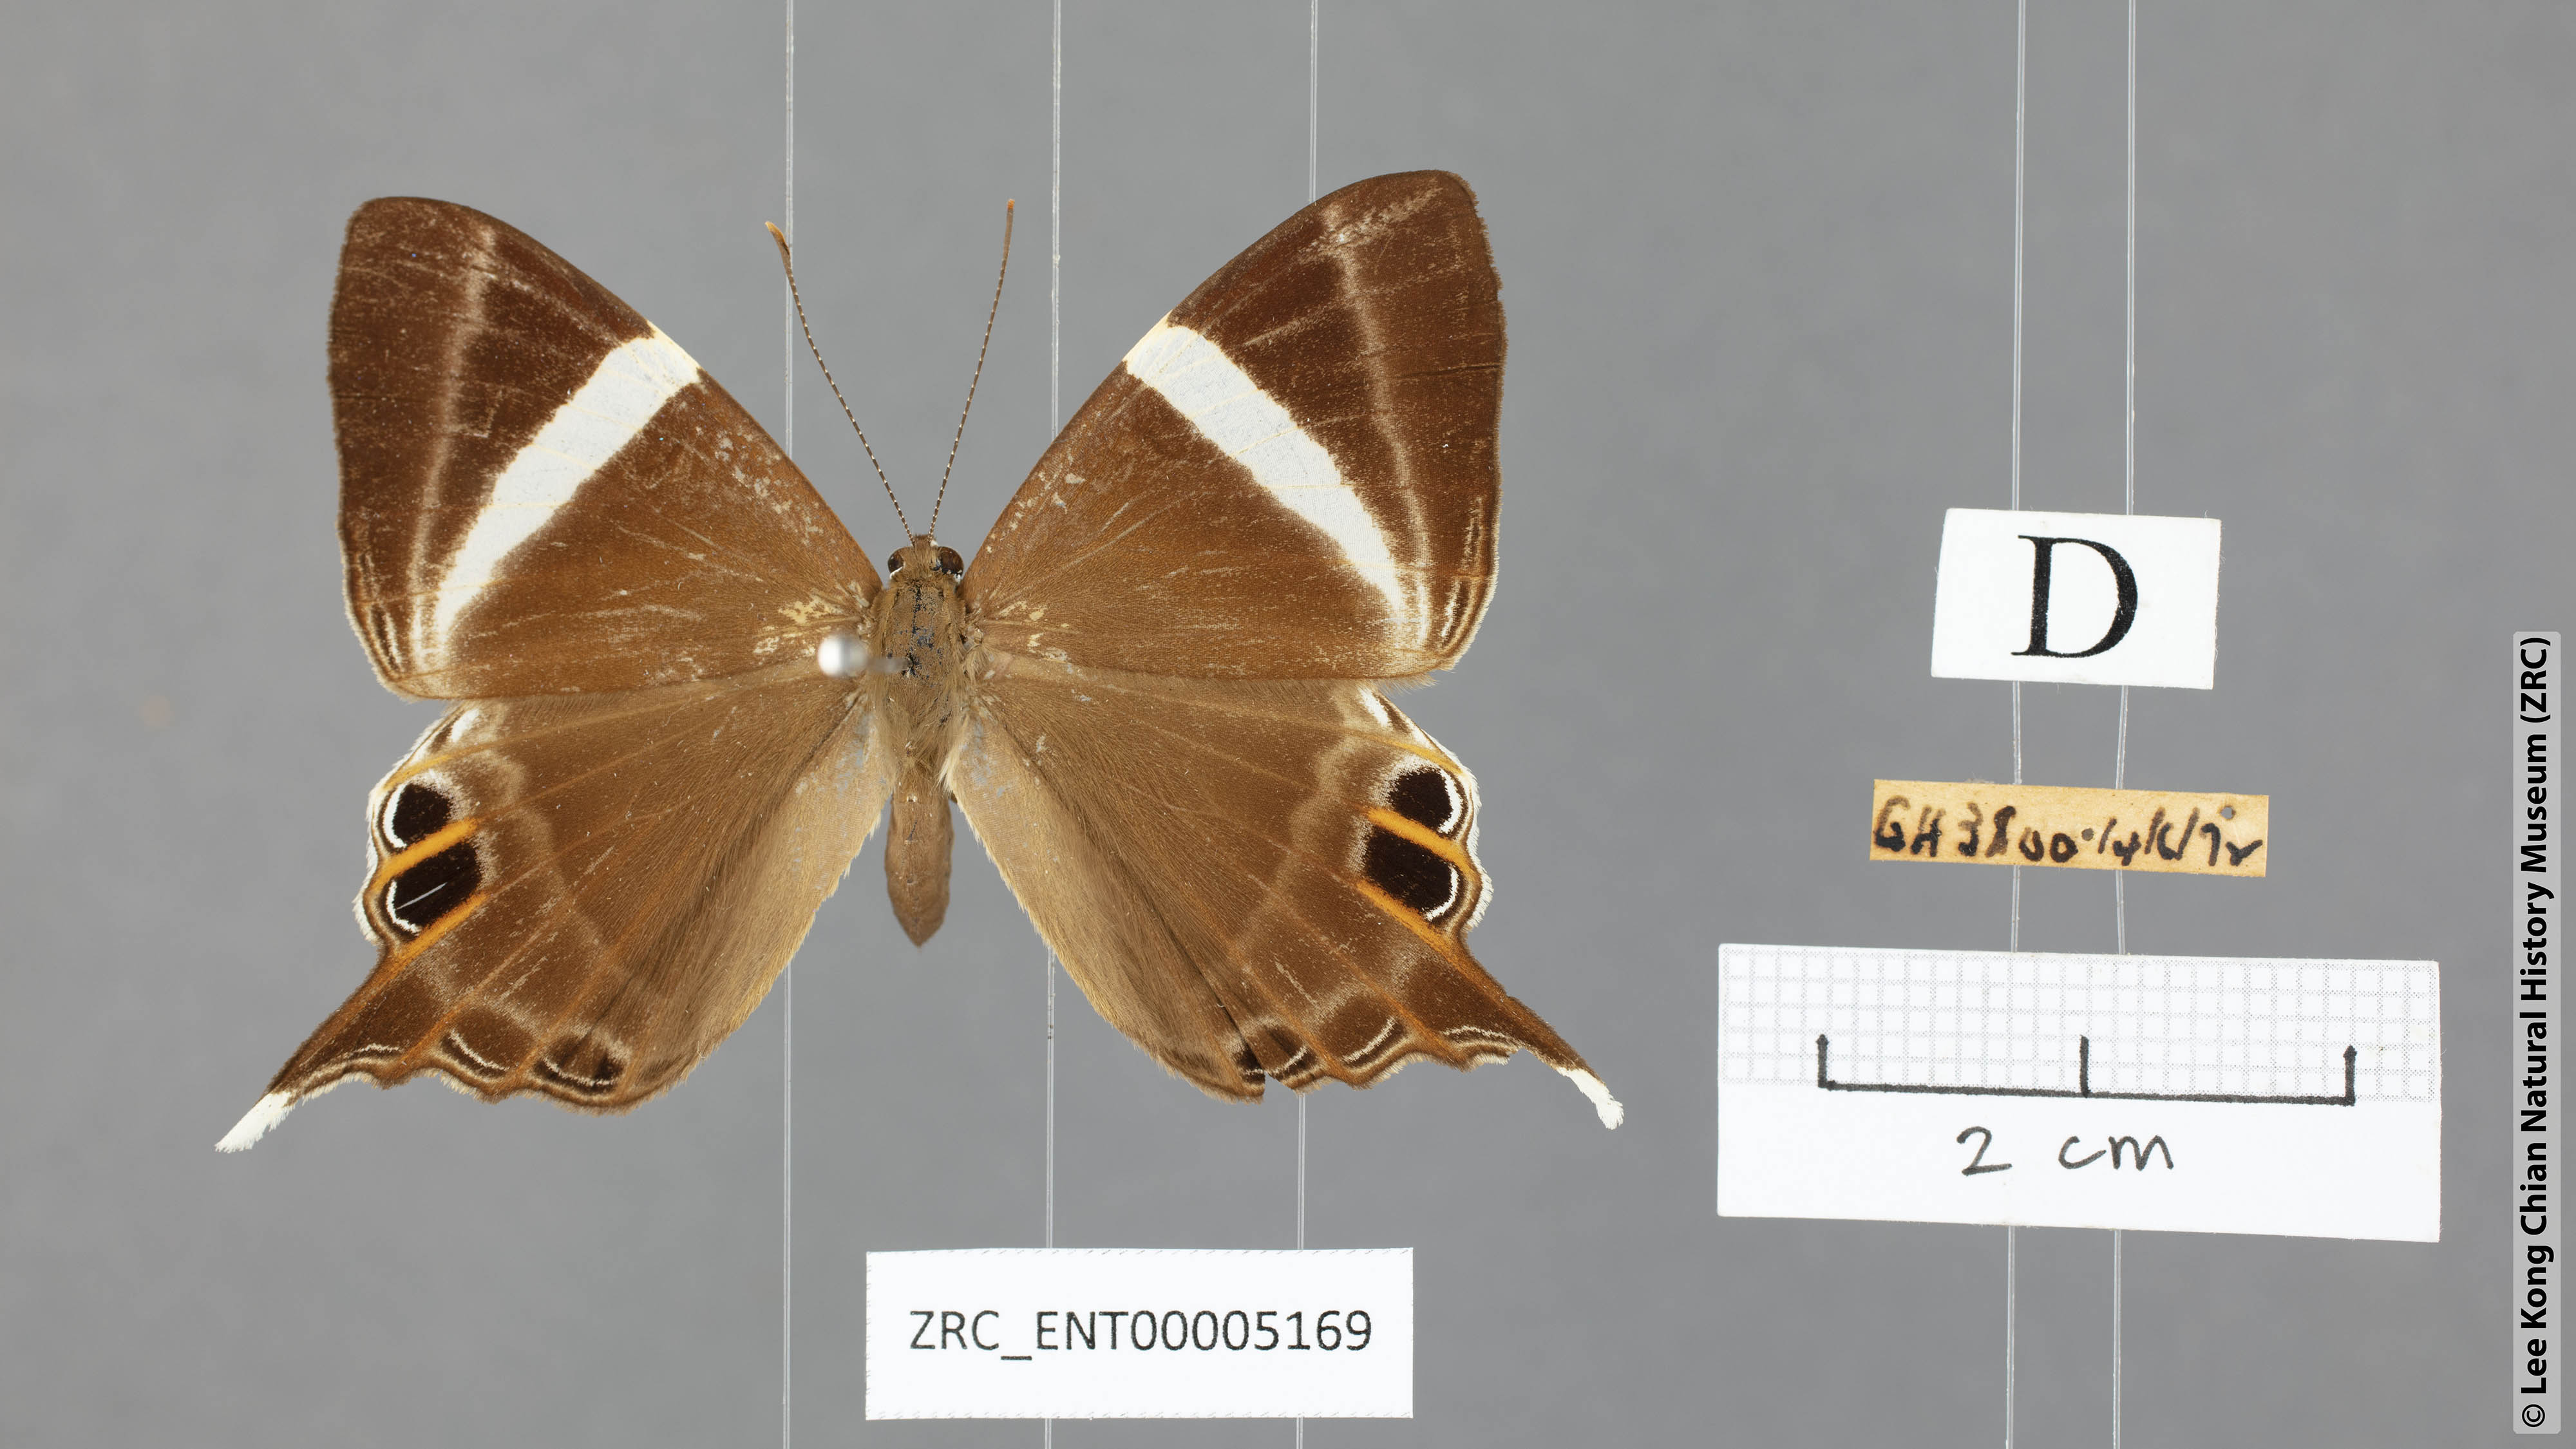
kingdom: Animalia
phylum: Arthropoda
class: Insecta
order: Lepidoptera
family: Riodinidae
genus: Archigenes
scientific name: Archigenes neophron
